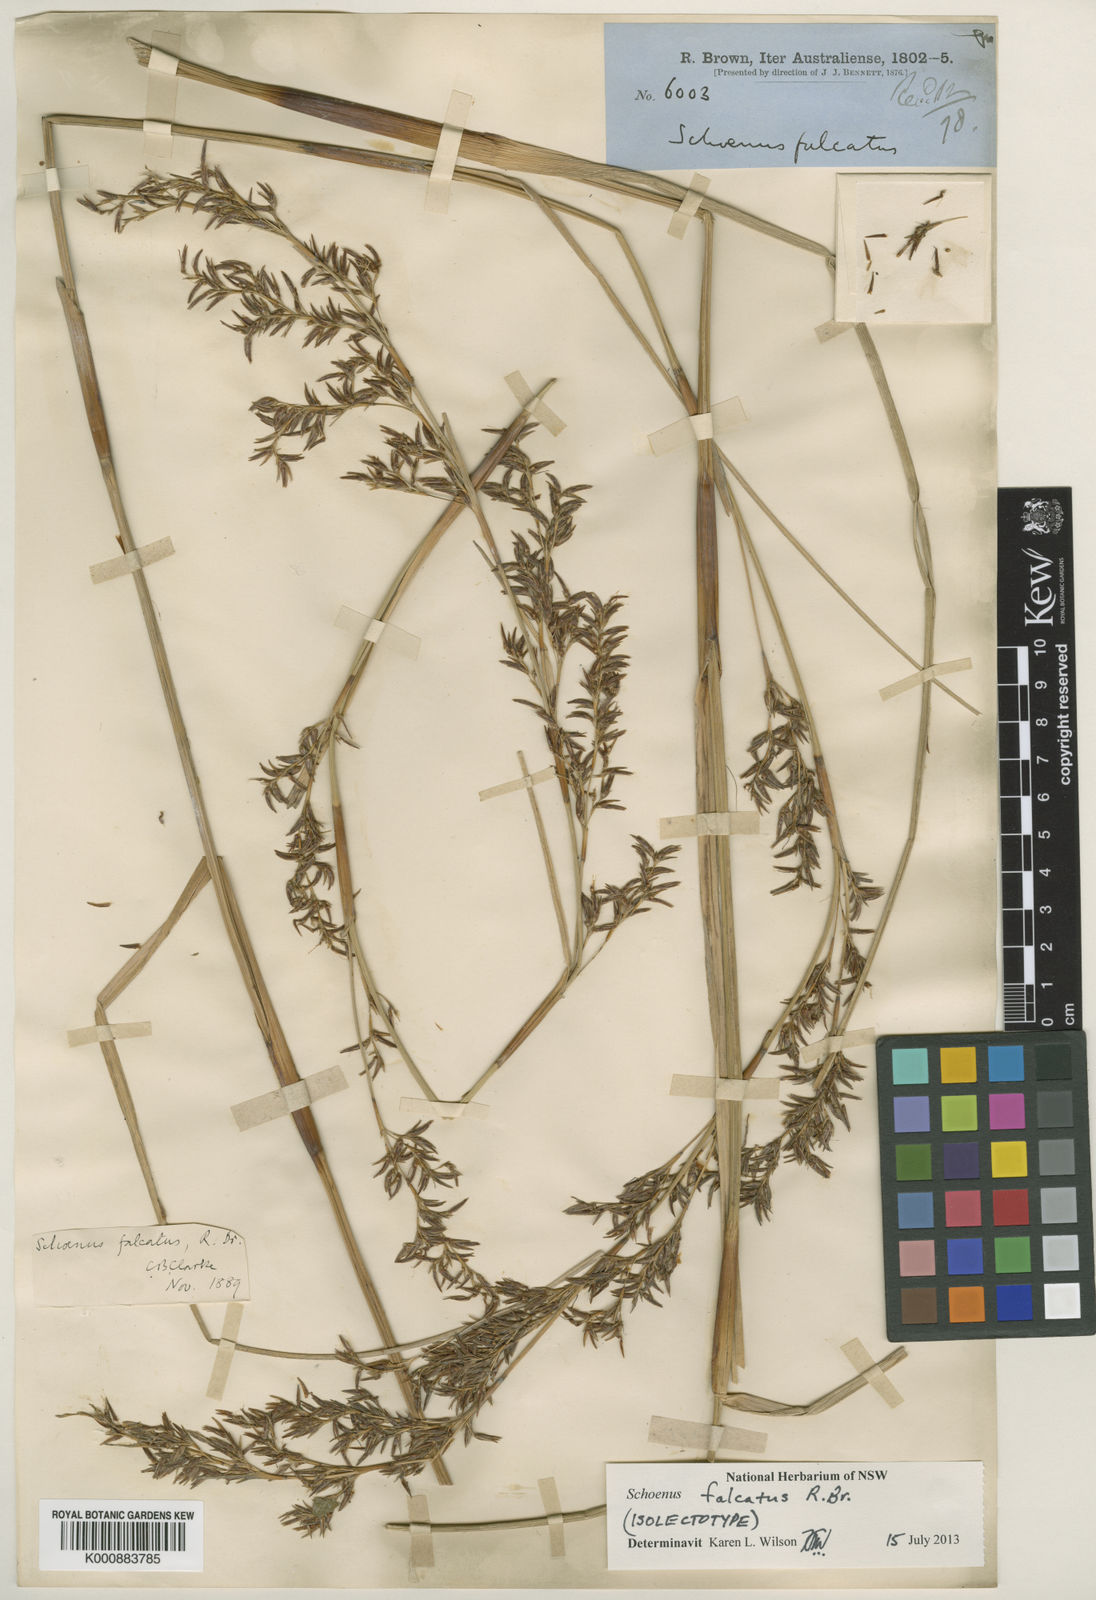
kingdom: Plantae
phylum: Tracheophyta
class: Liliopsida
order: Poales
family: Cyperaceae
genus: Schoenus
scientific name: Schoenus falcatus
